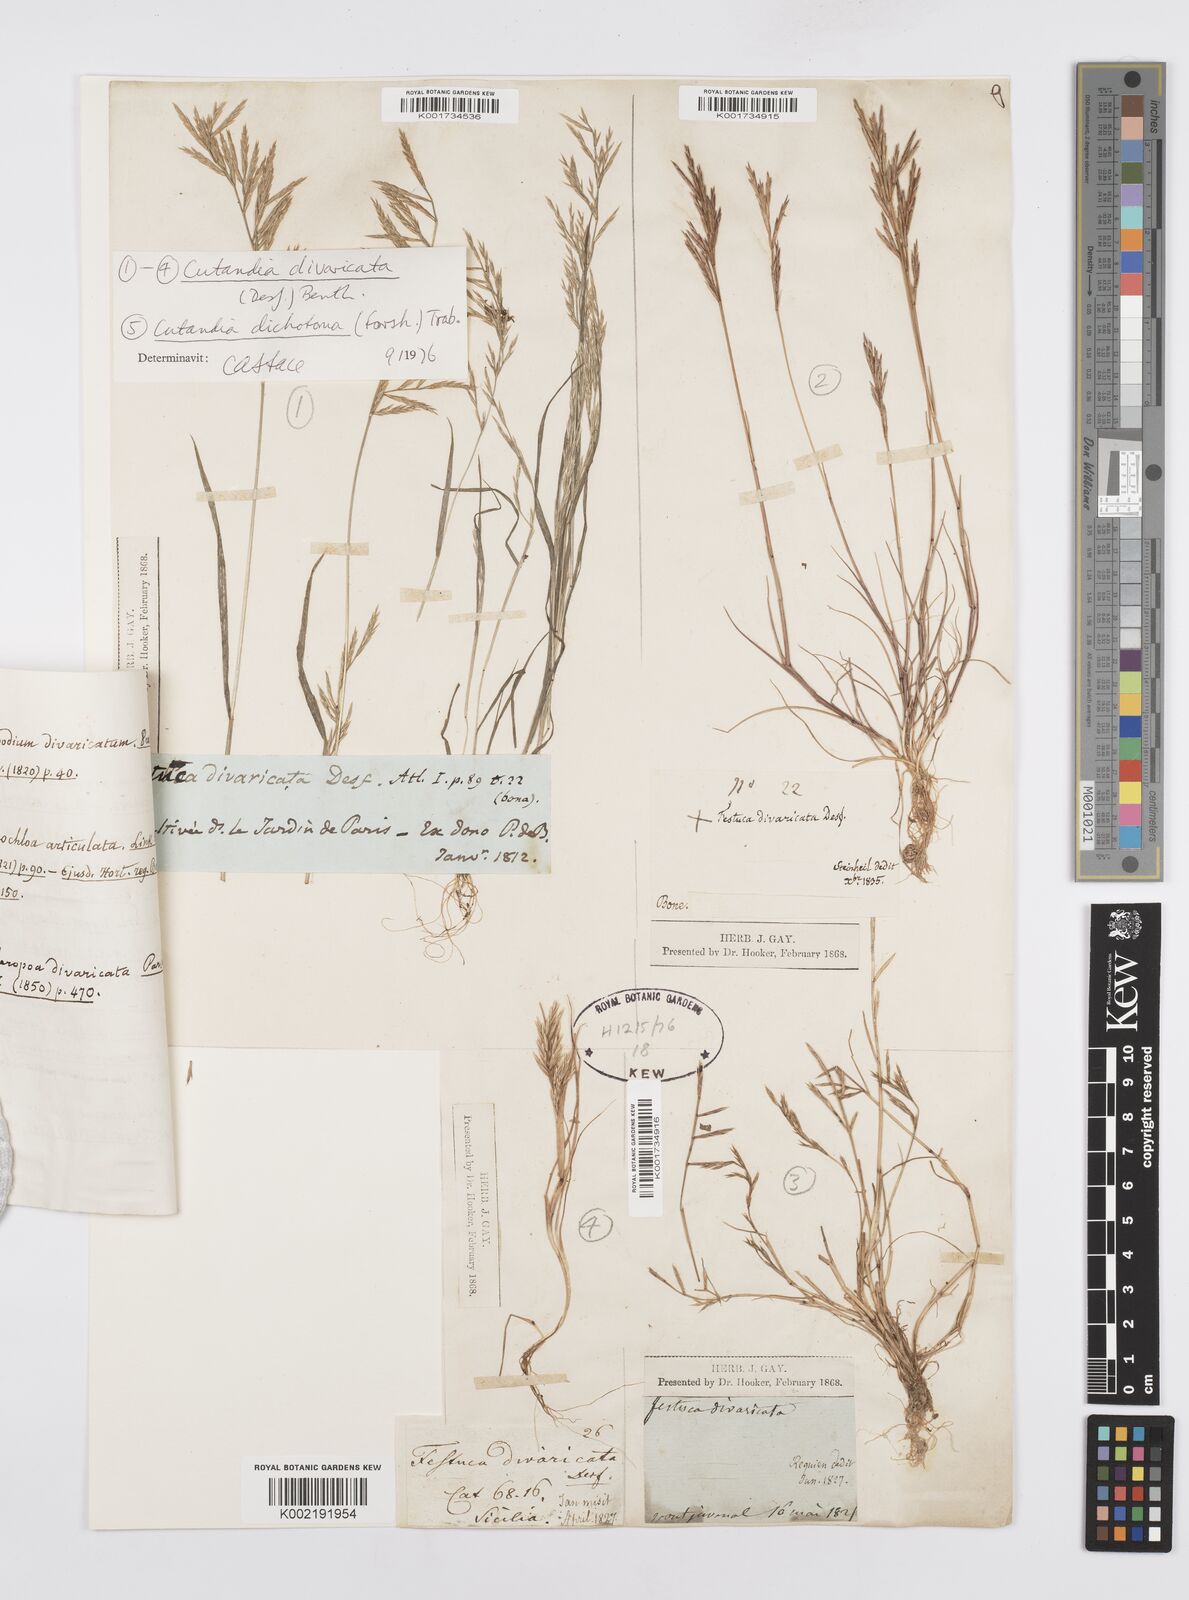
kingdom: Plantae
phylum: Tracheophyta
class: Liliopsida
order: Poales
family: Poaceae
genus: Cutandia
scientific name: Cutandia divaricata
